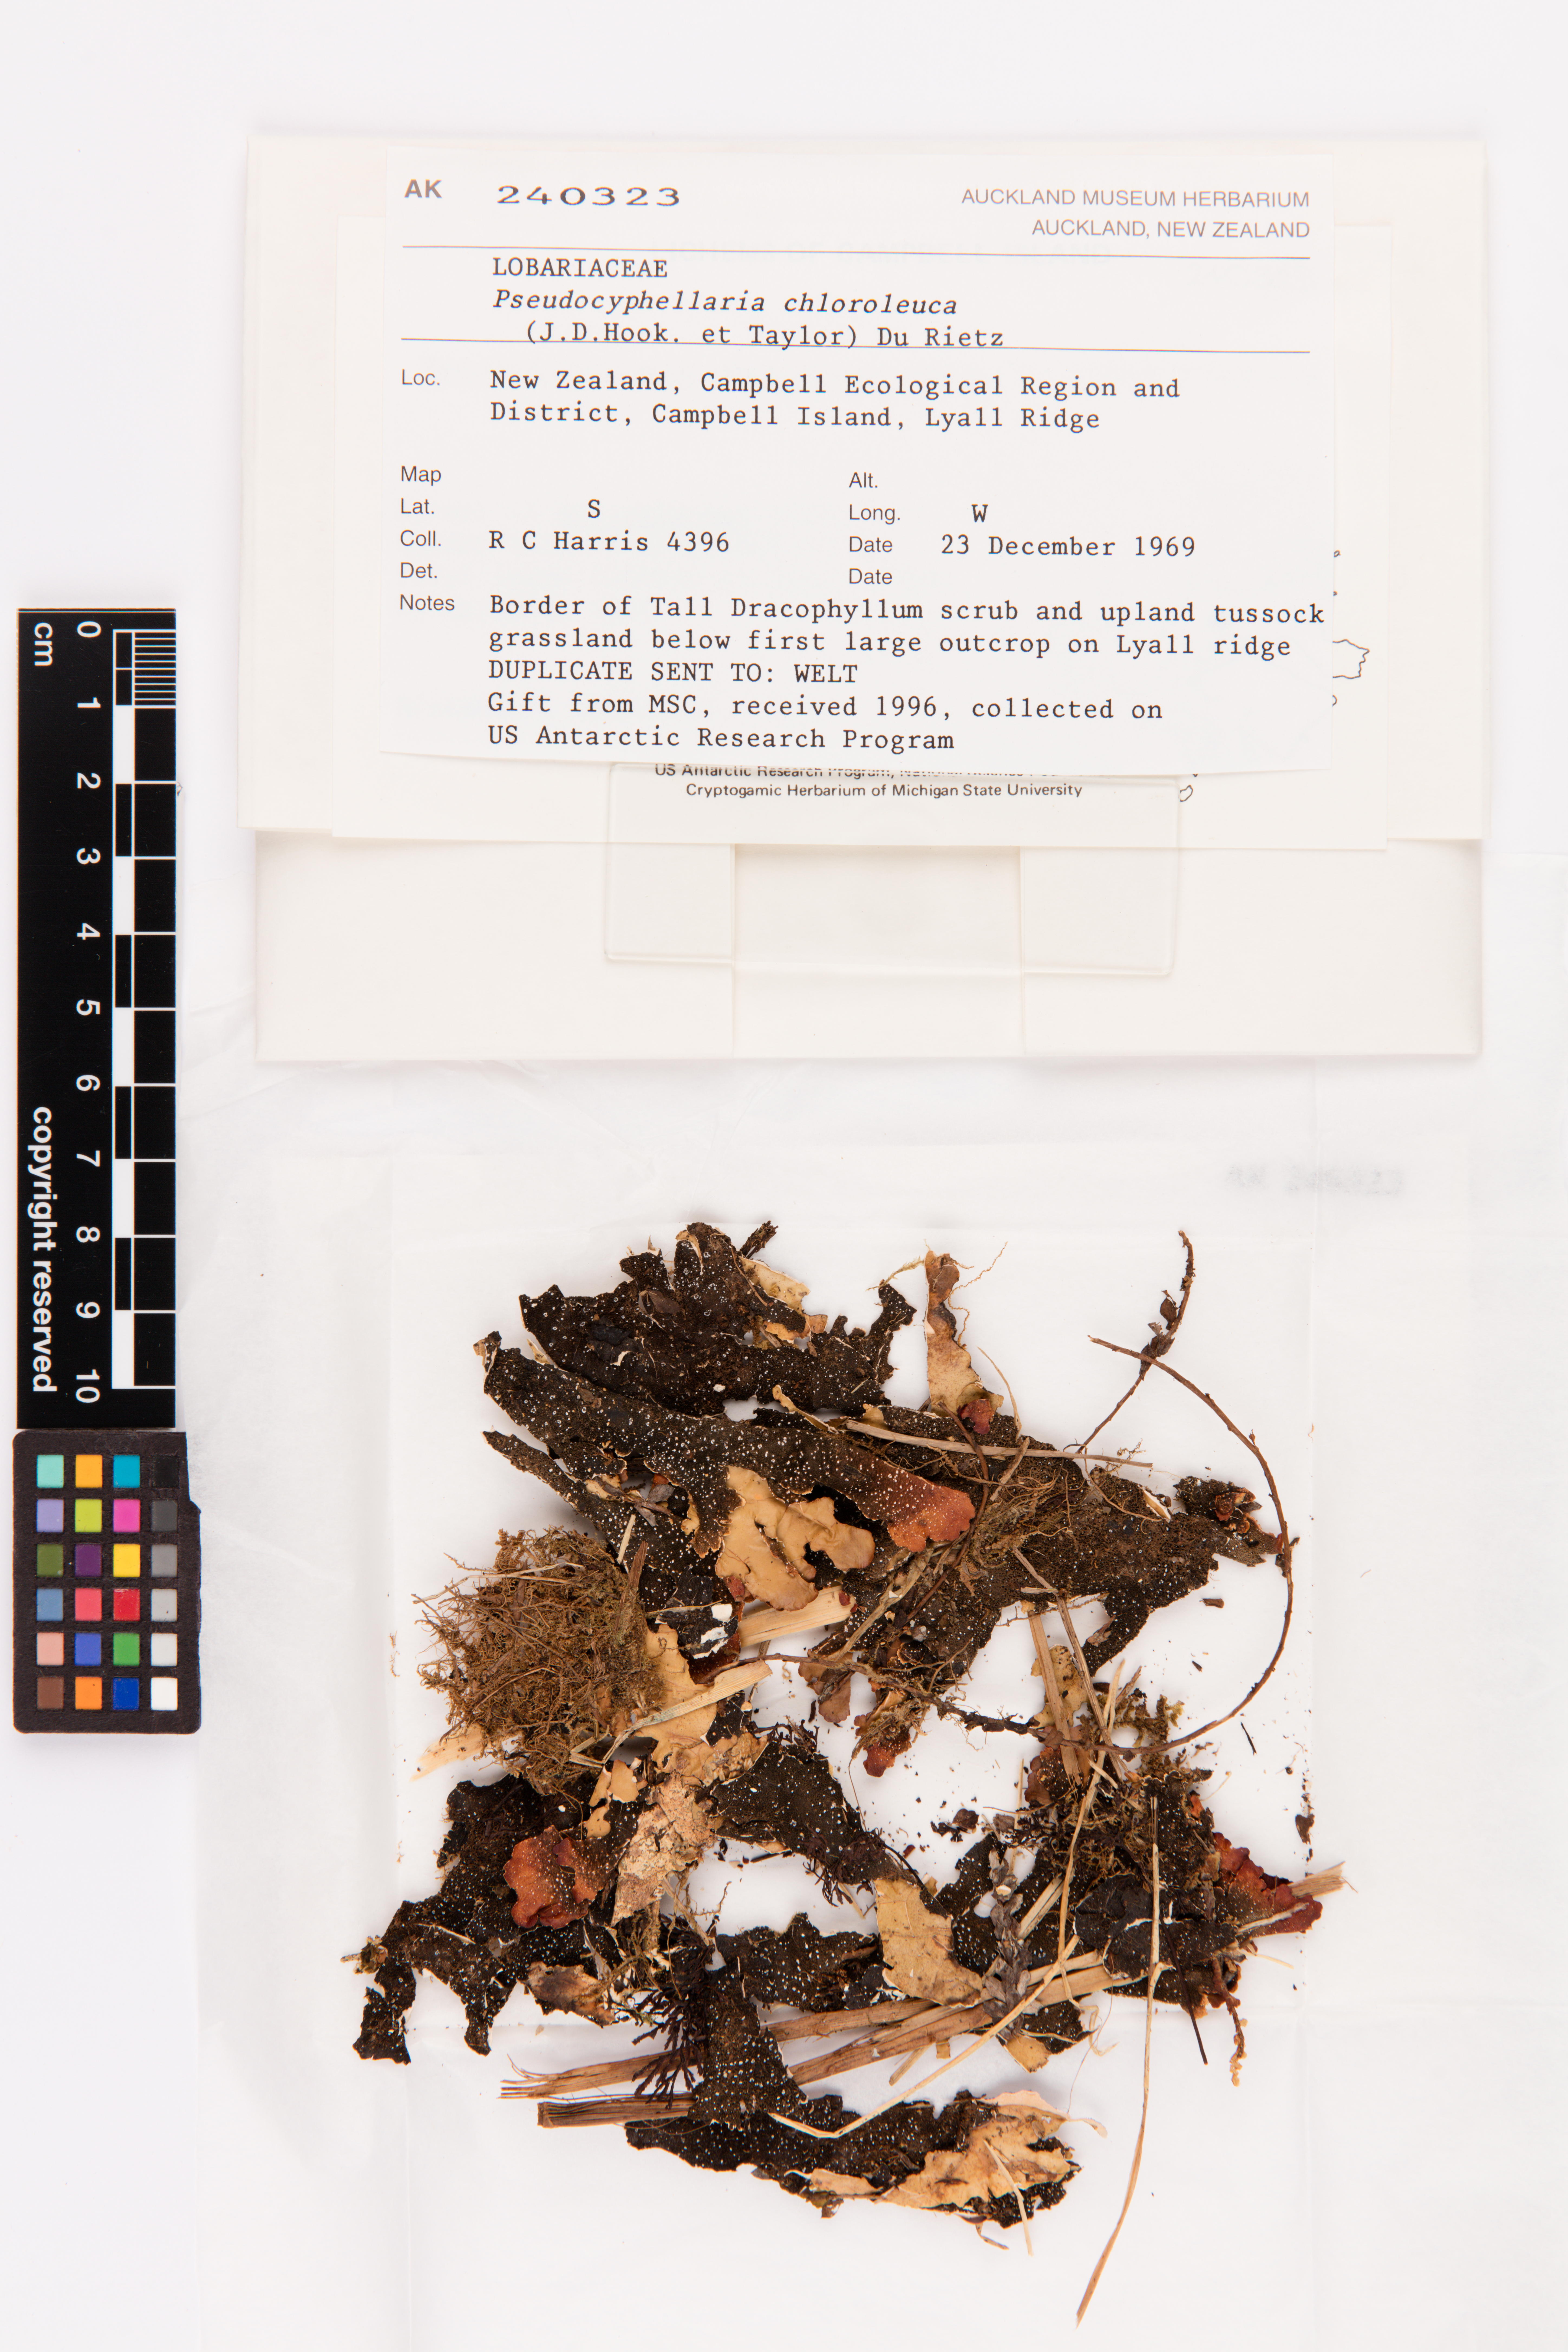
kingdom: Fungi
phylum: Ascomycota
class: Lecanoromycetes
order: Peltigerales
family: Lobariaceae
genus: Pseudocyphellaria
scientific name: Pseudocyphellaria chloroleuca
